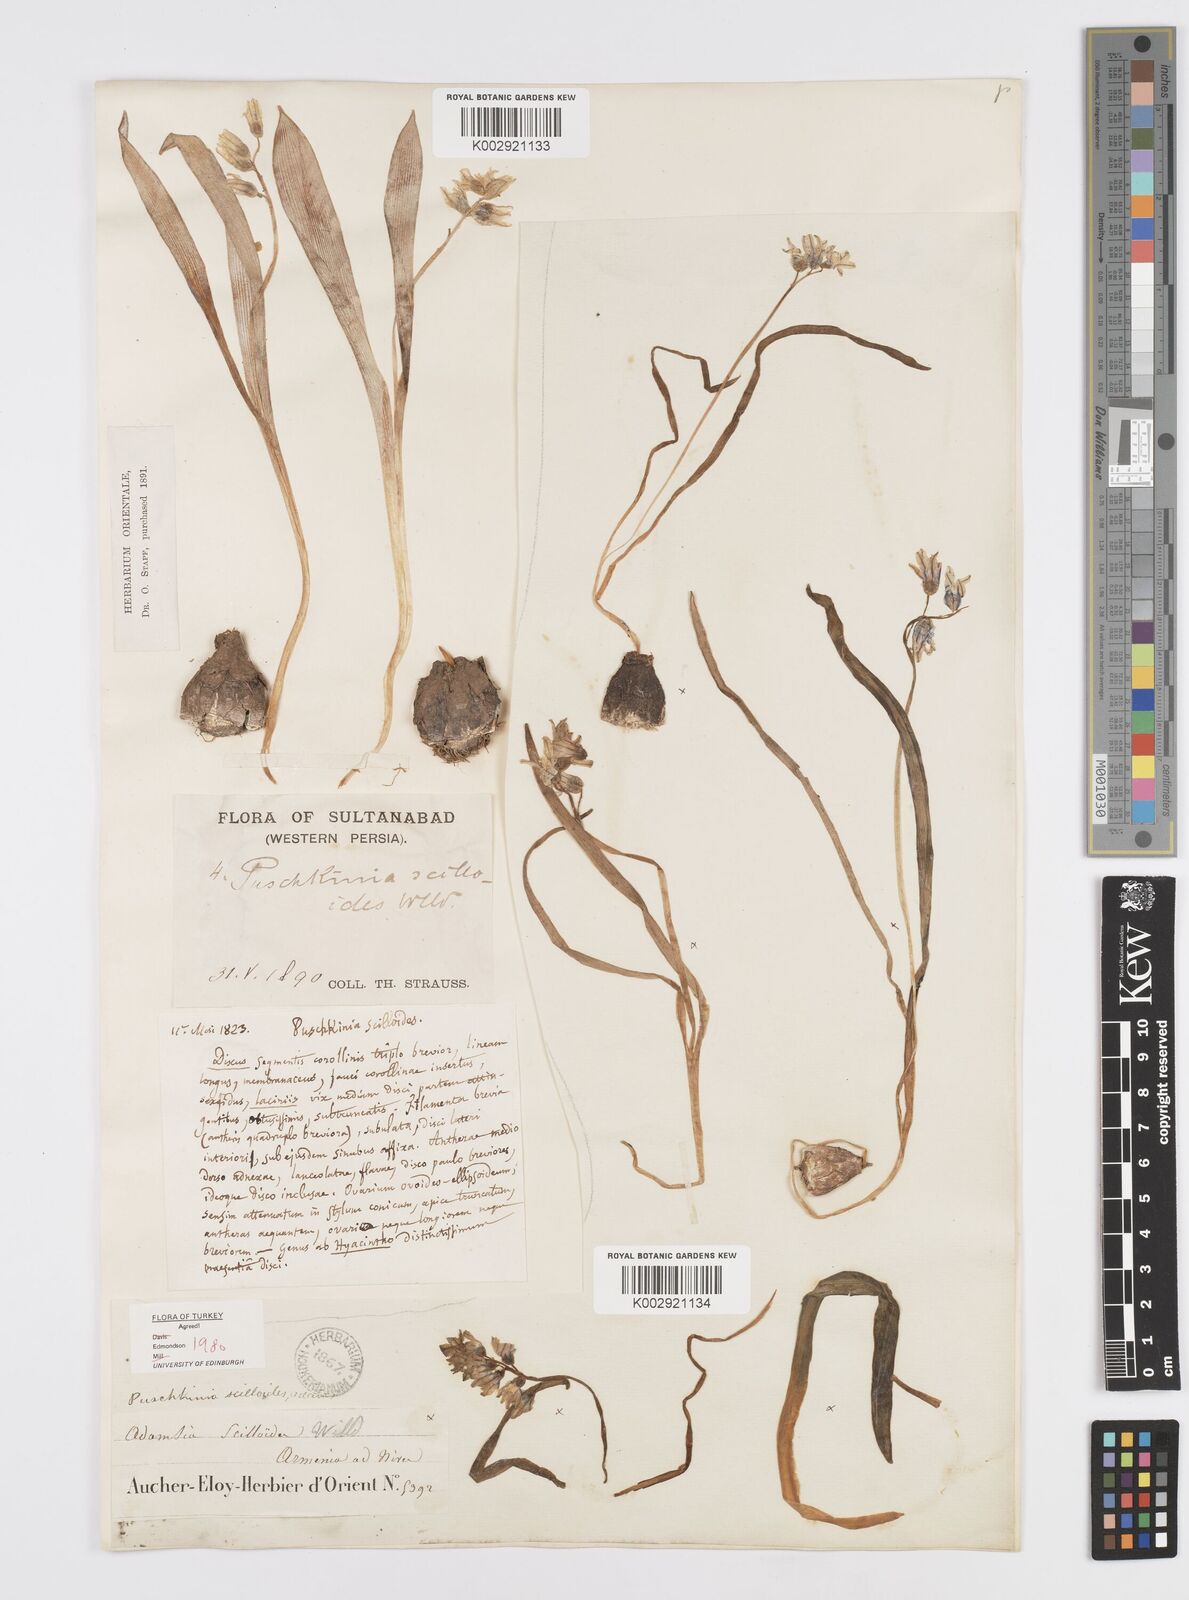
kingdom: Plantae
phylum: Tracheophyta
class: Liliopsida
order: Asparagales
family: Asparagaceae
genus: Puschkinia
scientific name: Puschkinia scilloides
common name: Striped squill
